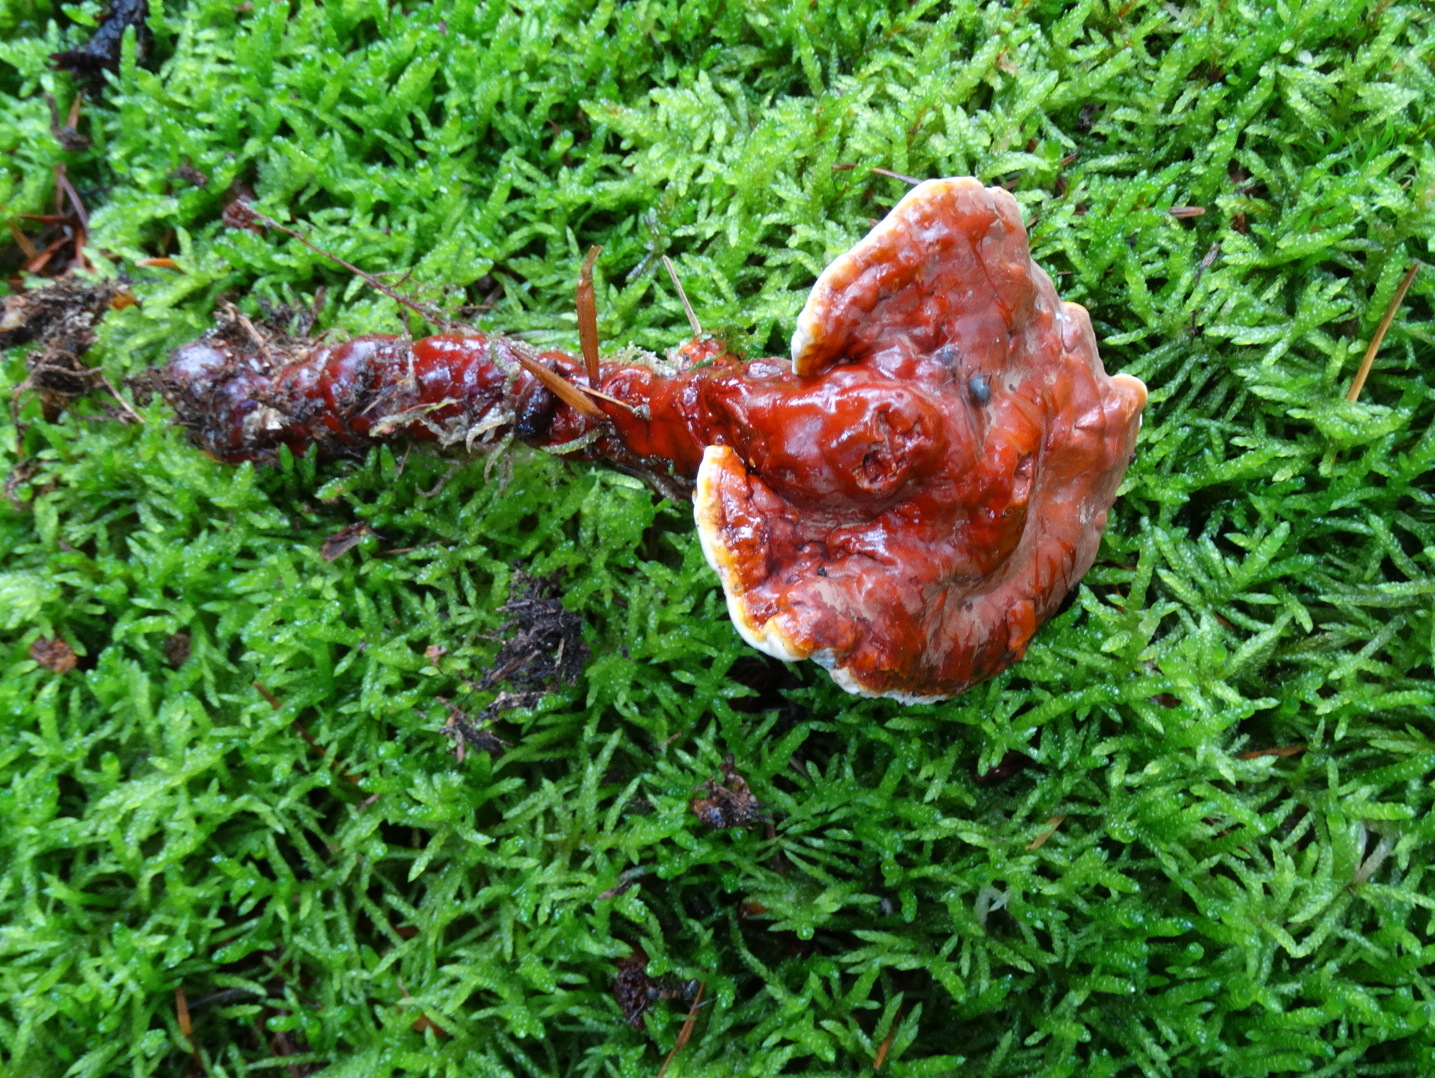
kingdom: Fungi
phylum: Basidiomycota
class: Agaricomycetes
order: Polyporales
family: Polyporaceae
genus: Ganoderma
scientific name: Ganoderma lucidum
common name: skinnende lakporesvamp
